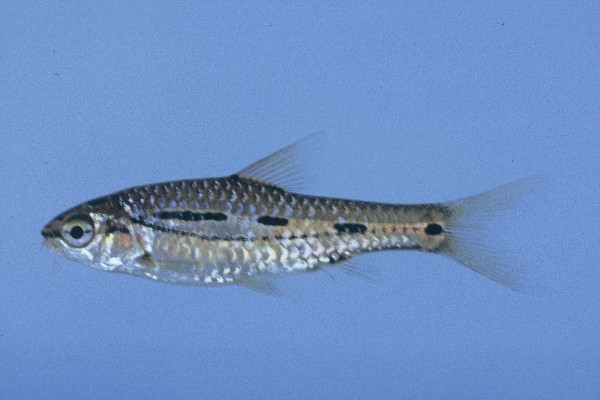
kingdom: Animalia
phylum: Chordata
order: Cypriniformes
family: Cyprinidae
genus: Enteromius
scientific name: Enteromius bifrenatus
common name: Hyphen barb
